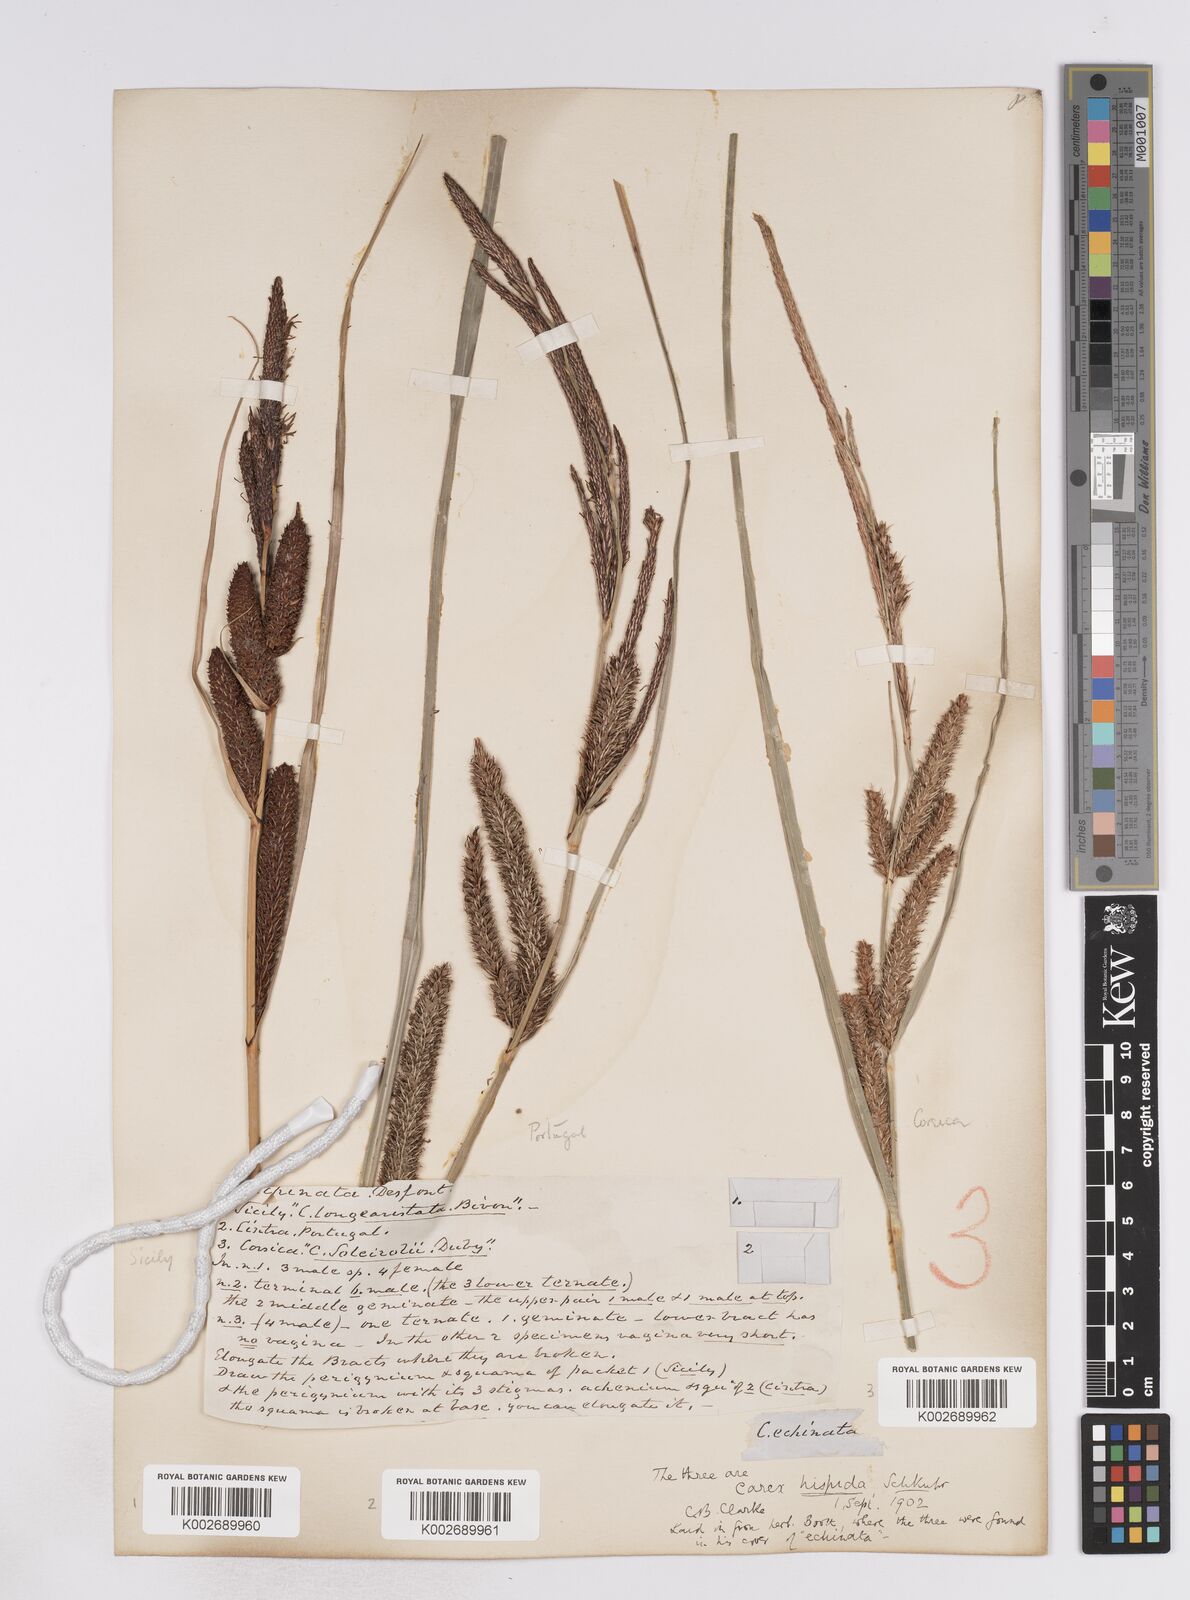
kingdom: Plantae
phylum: Tracheophyta
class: Liliopsida
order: Poales
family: Cyperaceae
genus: Carex
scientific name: Carex hispida
